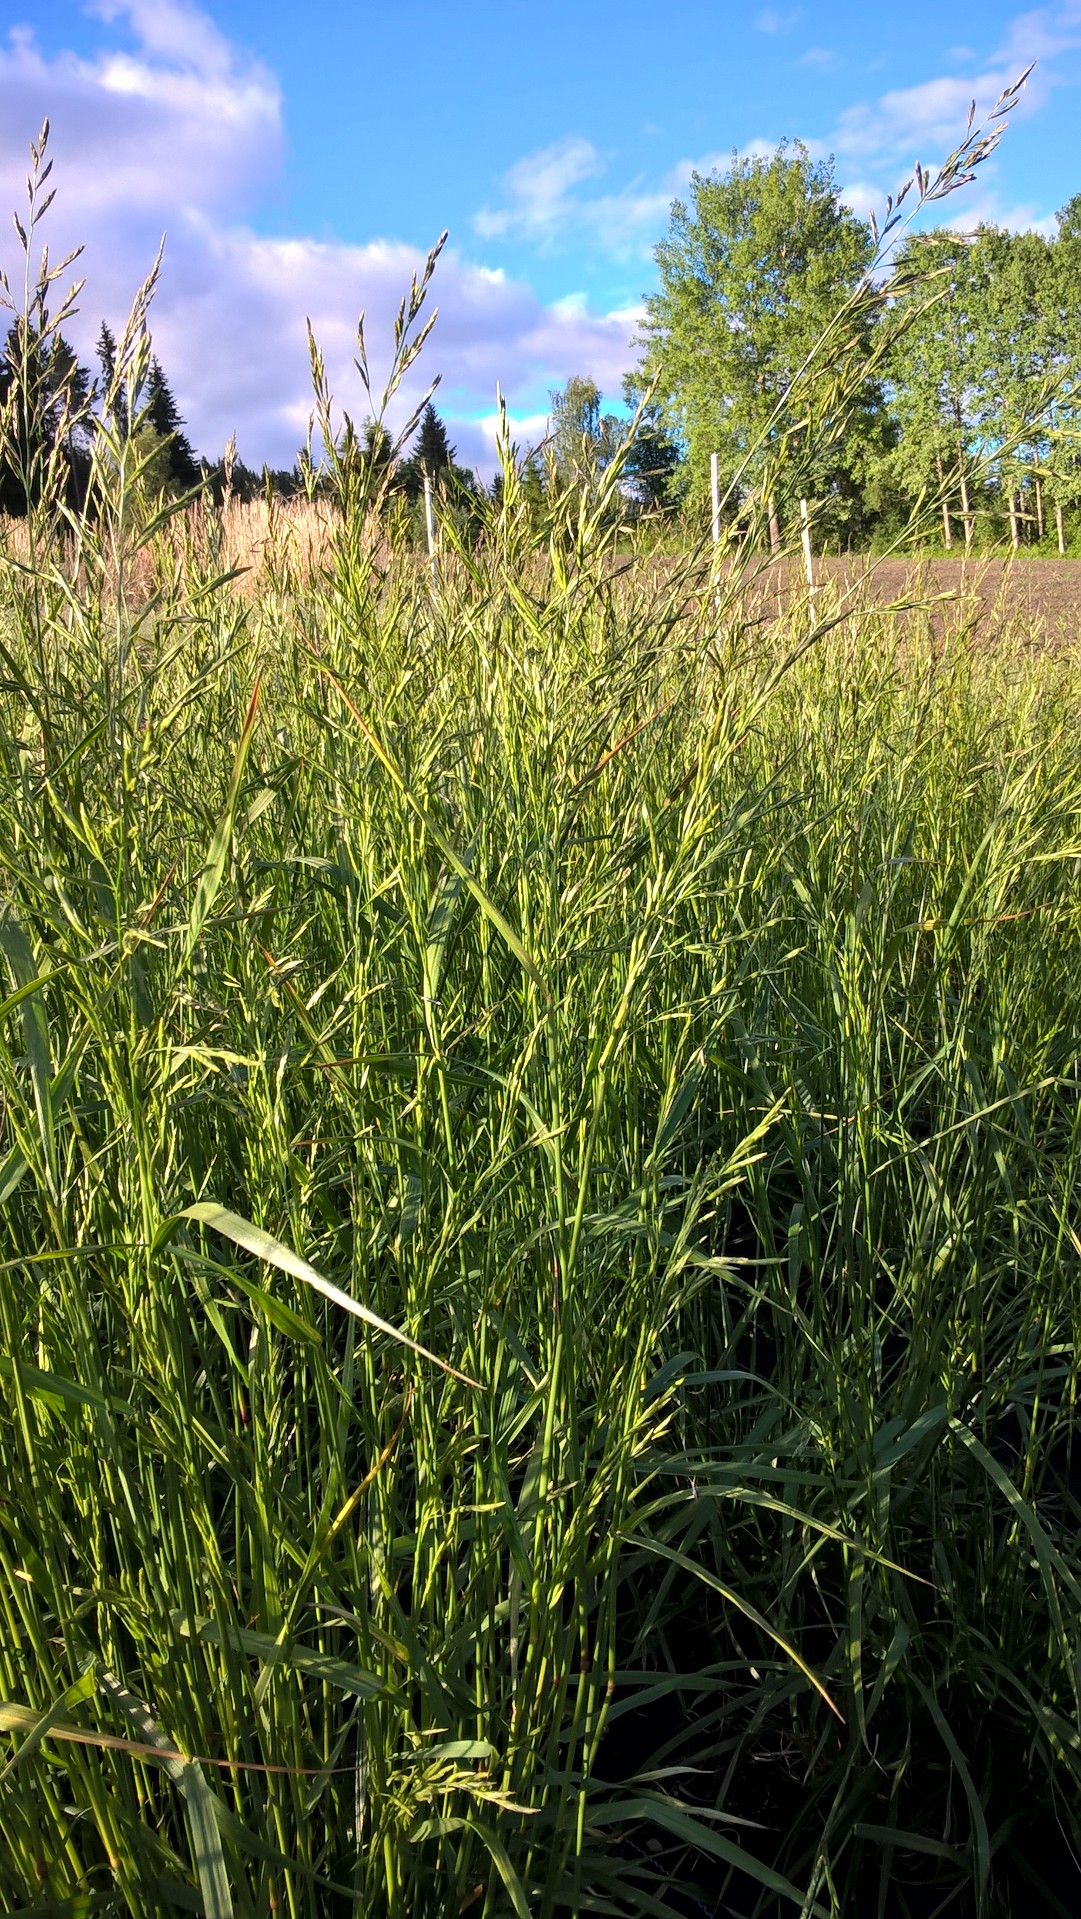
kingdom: Plantae
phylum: Tracheophyta
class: Liliopsida
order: Poales
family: Poaceae
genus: Lolium
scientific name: Lolium pratense
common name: Dover grass
